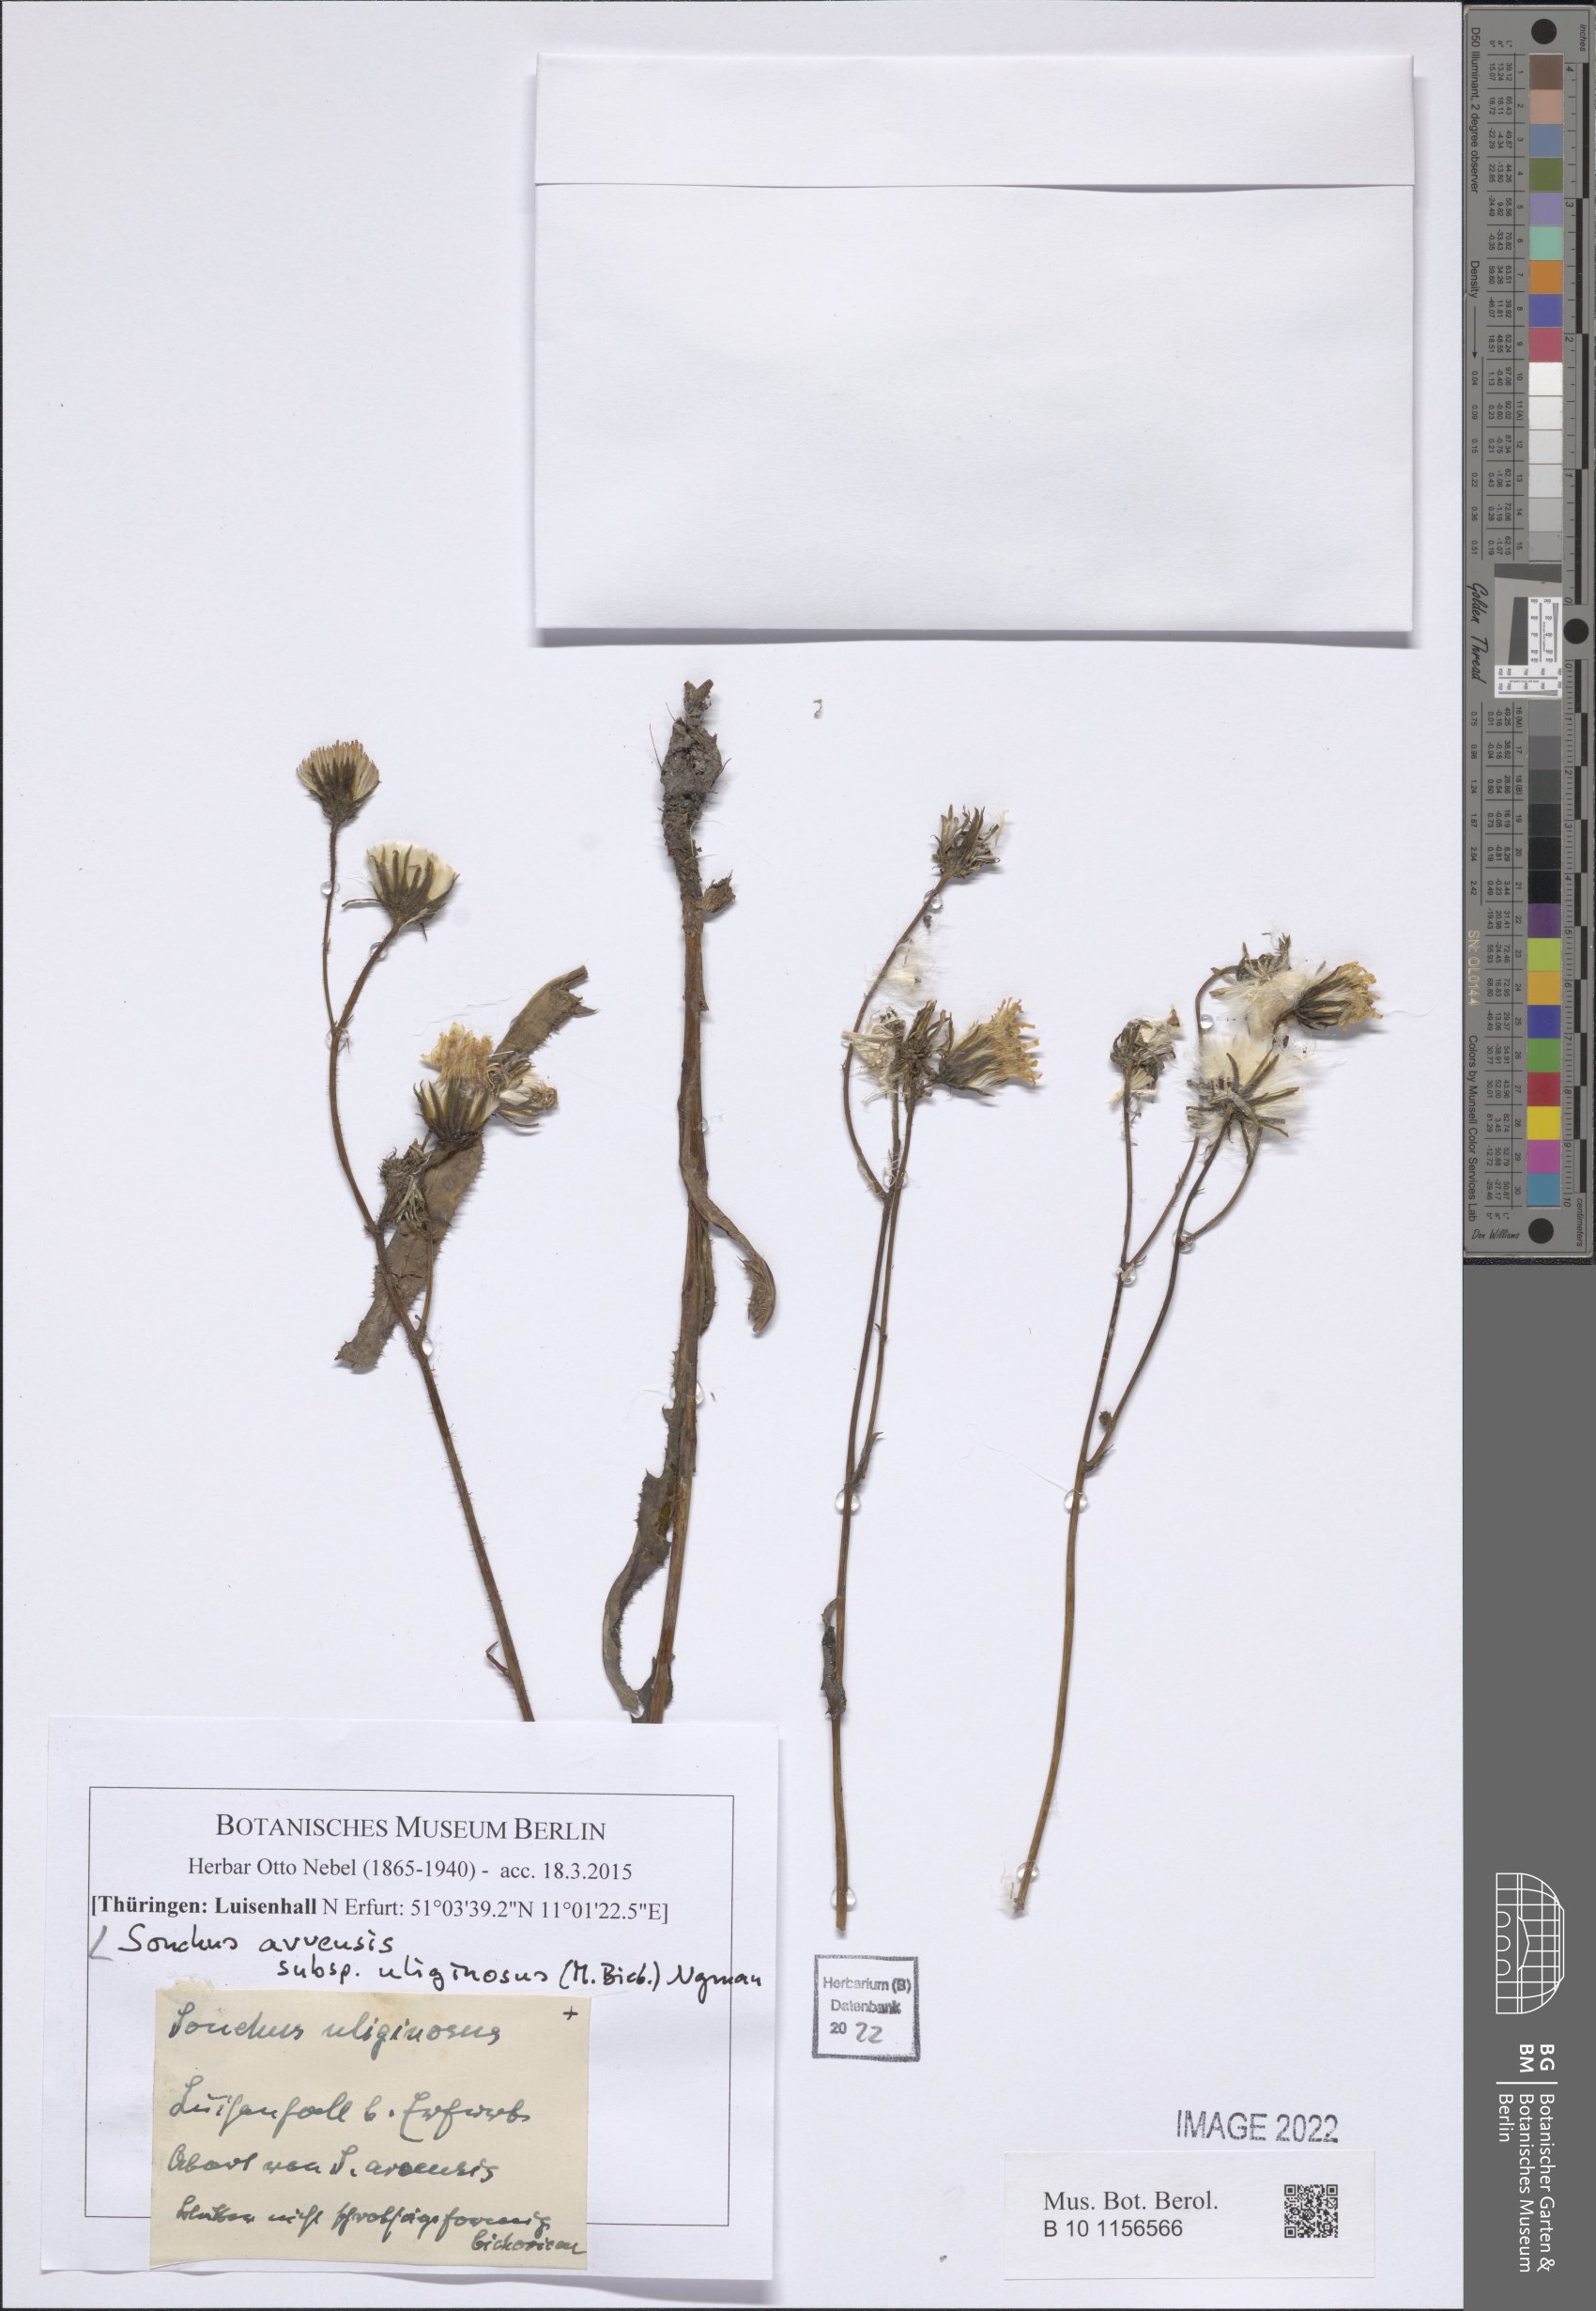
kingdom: Plantae
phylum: Tracheophyta
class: Magnoliopsida
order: Asterales
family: Asteraceae
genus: Sonchus
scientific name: Sonchus arvensis
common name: Perennial sow-thistle
